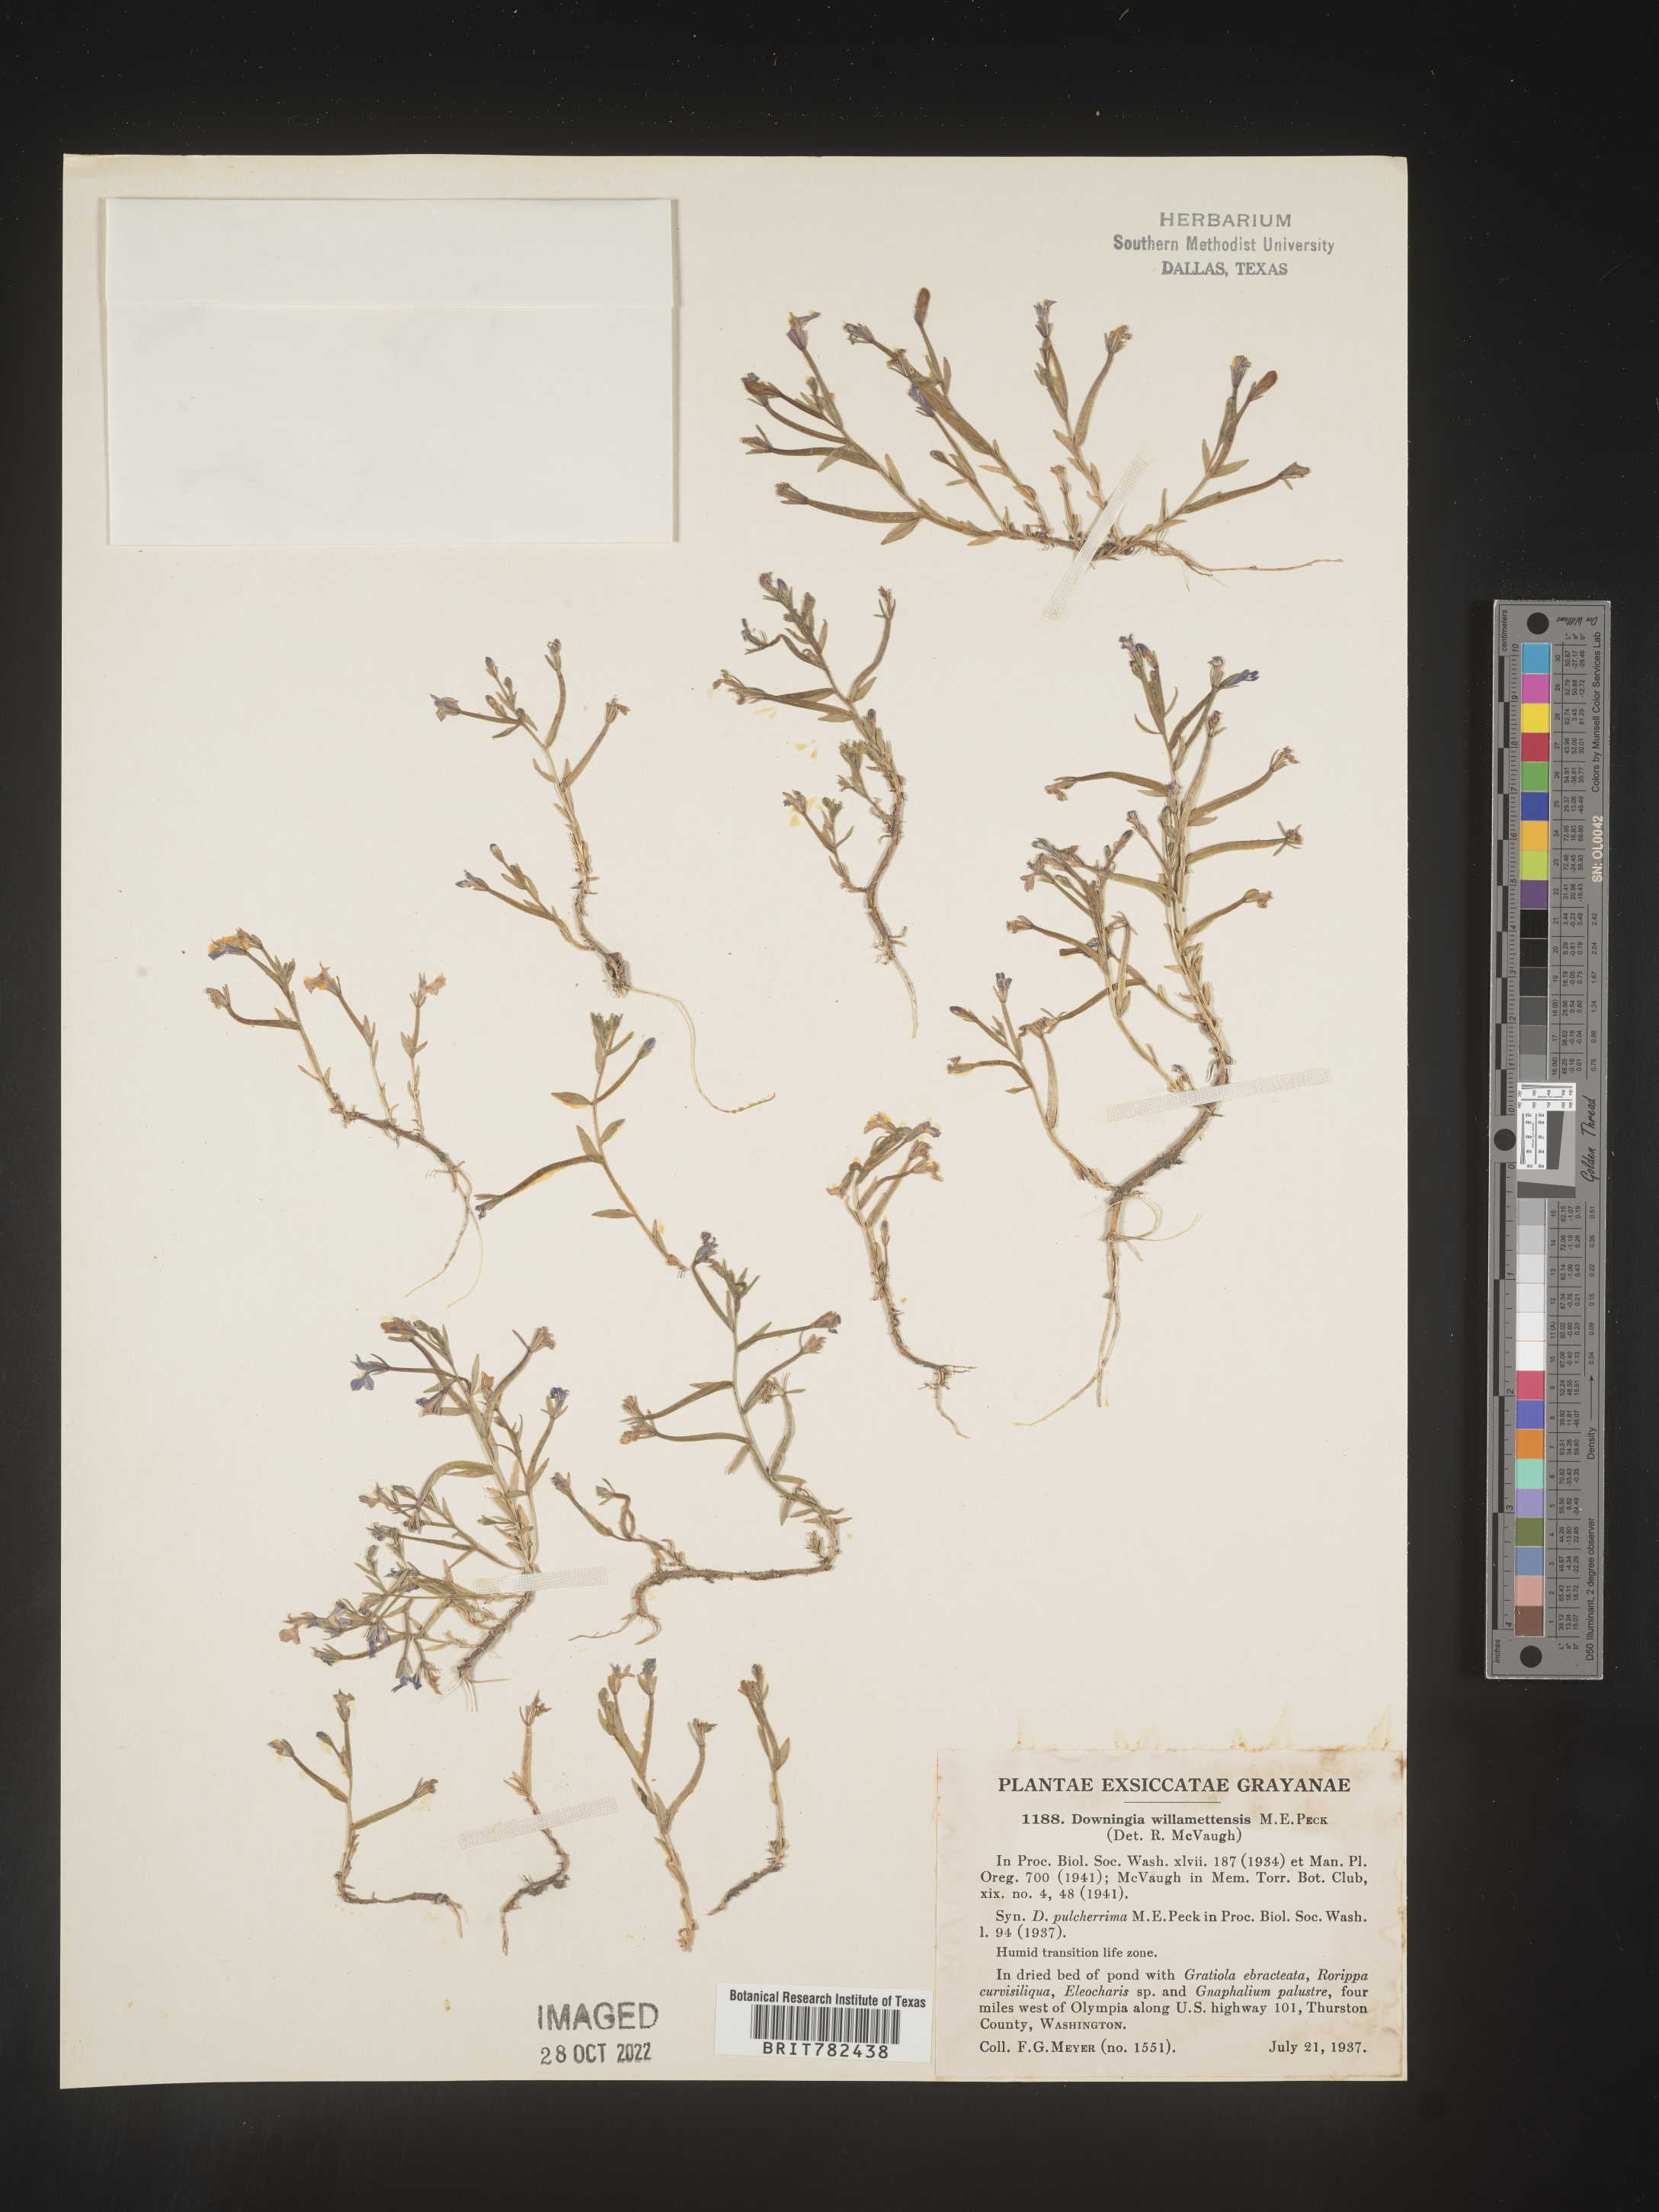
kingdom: Plantae
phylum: Tracheophyta
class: Magnoliopsida
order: Asterales
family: Campanulaceae
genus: Downingia
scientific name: Downingia
